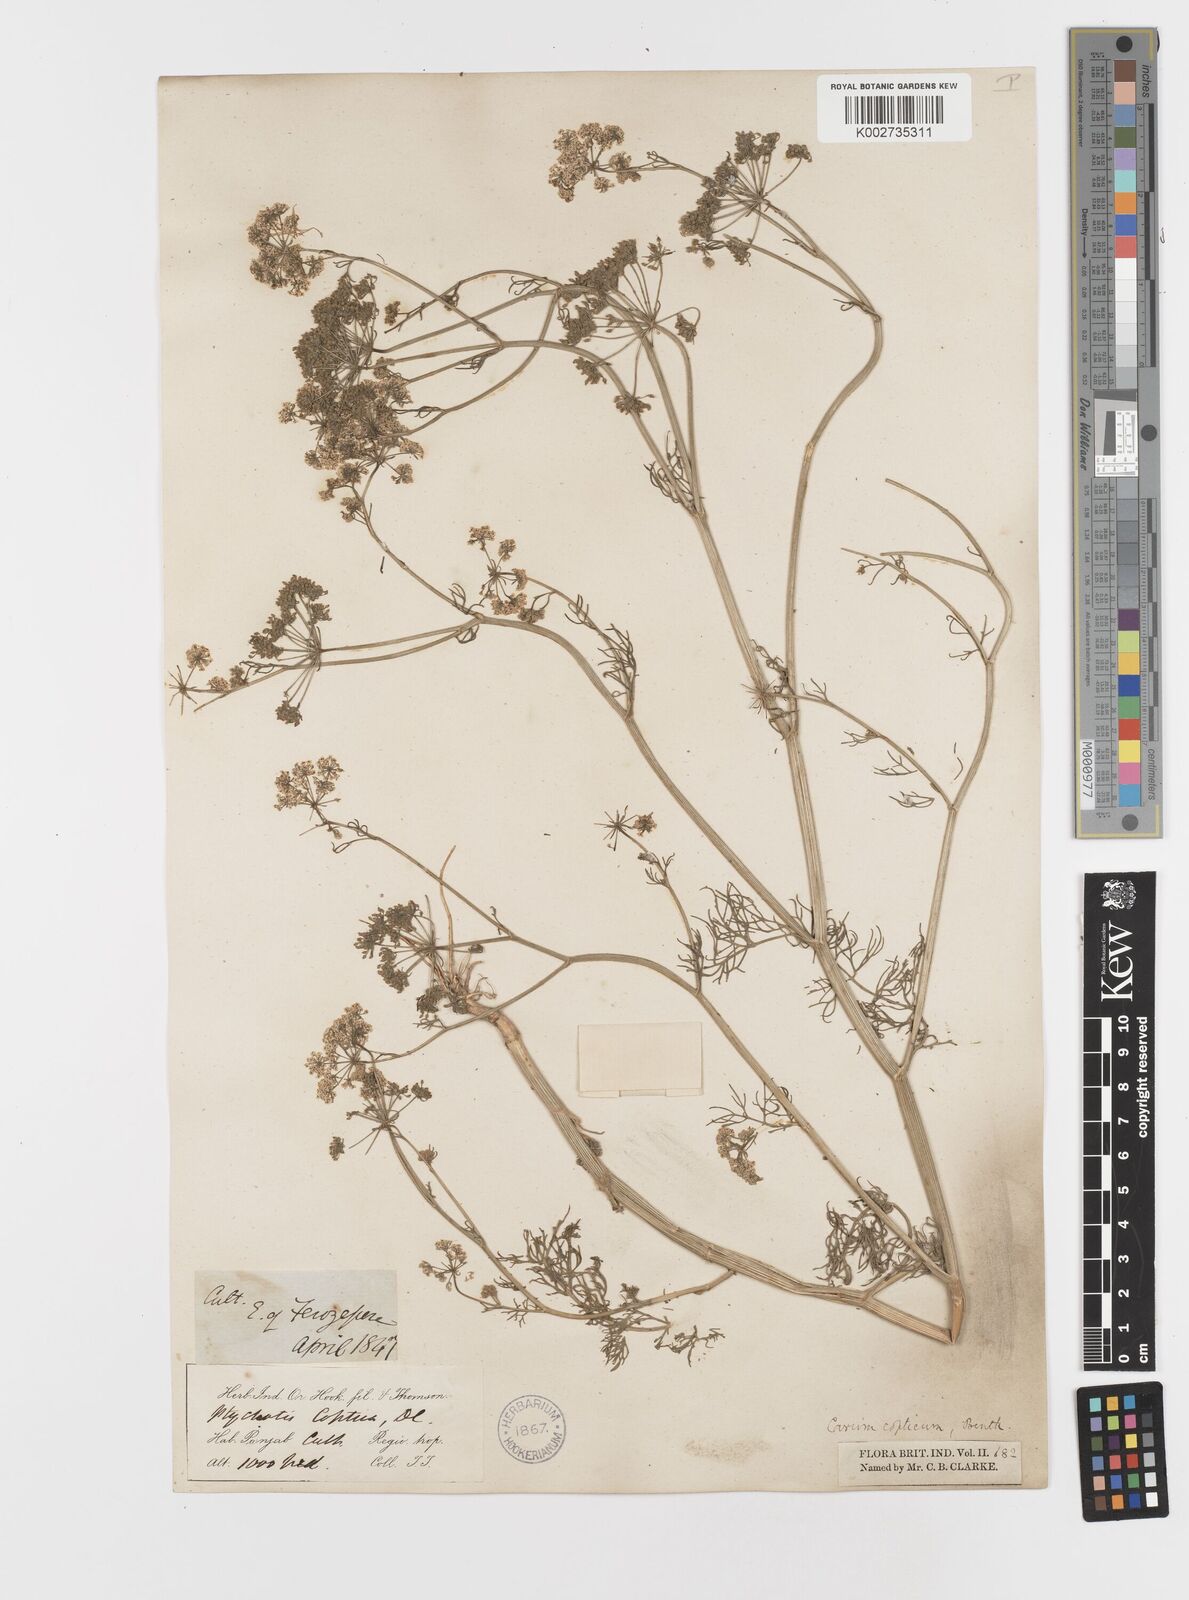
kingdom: Plantae
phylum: Tracheophyta
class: Magnoliopsida
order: Apiales
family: Apiaceae
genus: Trachyspermum
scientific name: Trachyspermum ammi
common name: Ajowan
